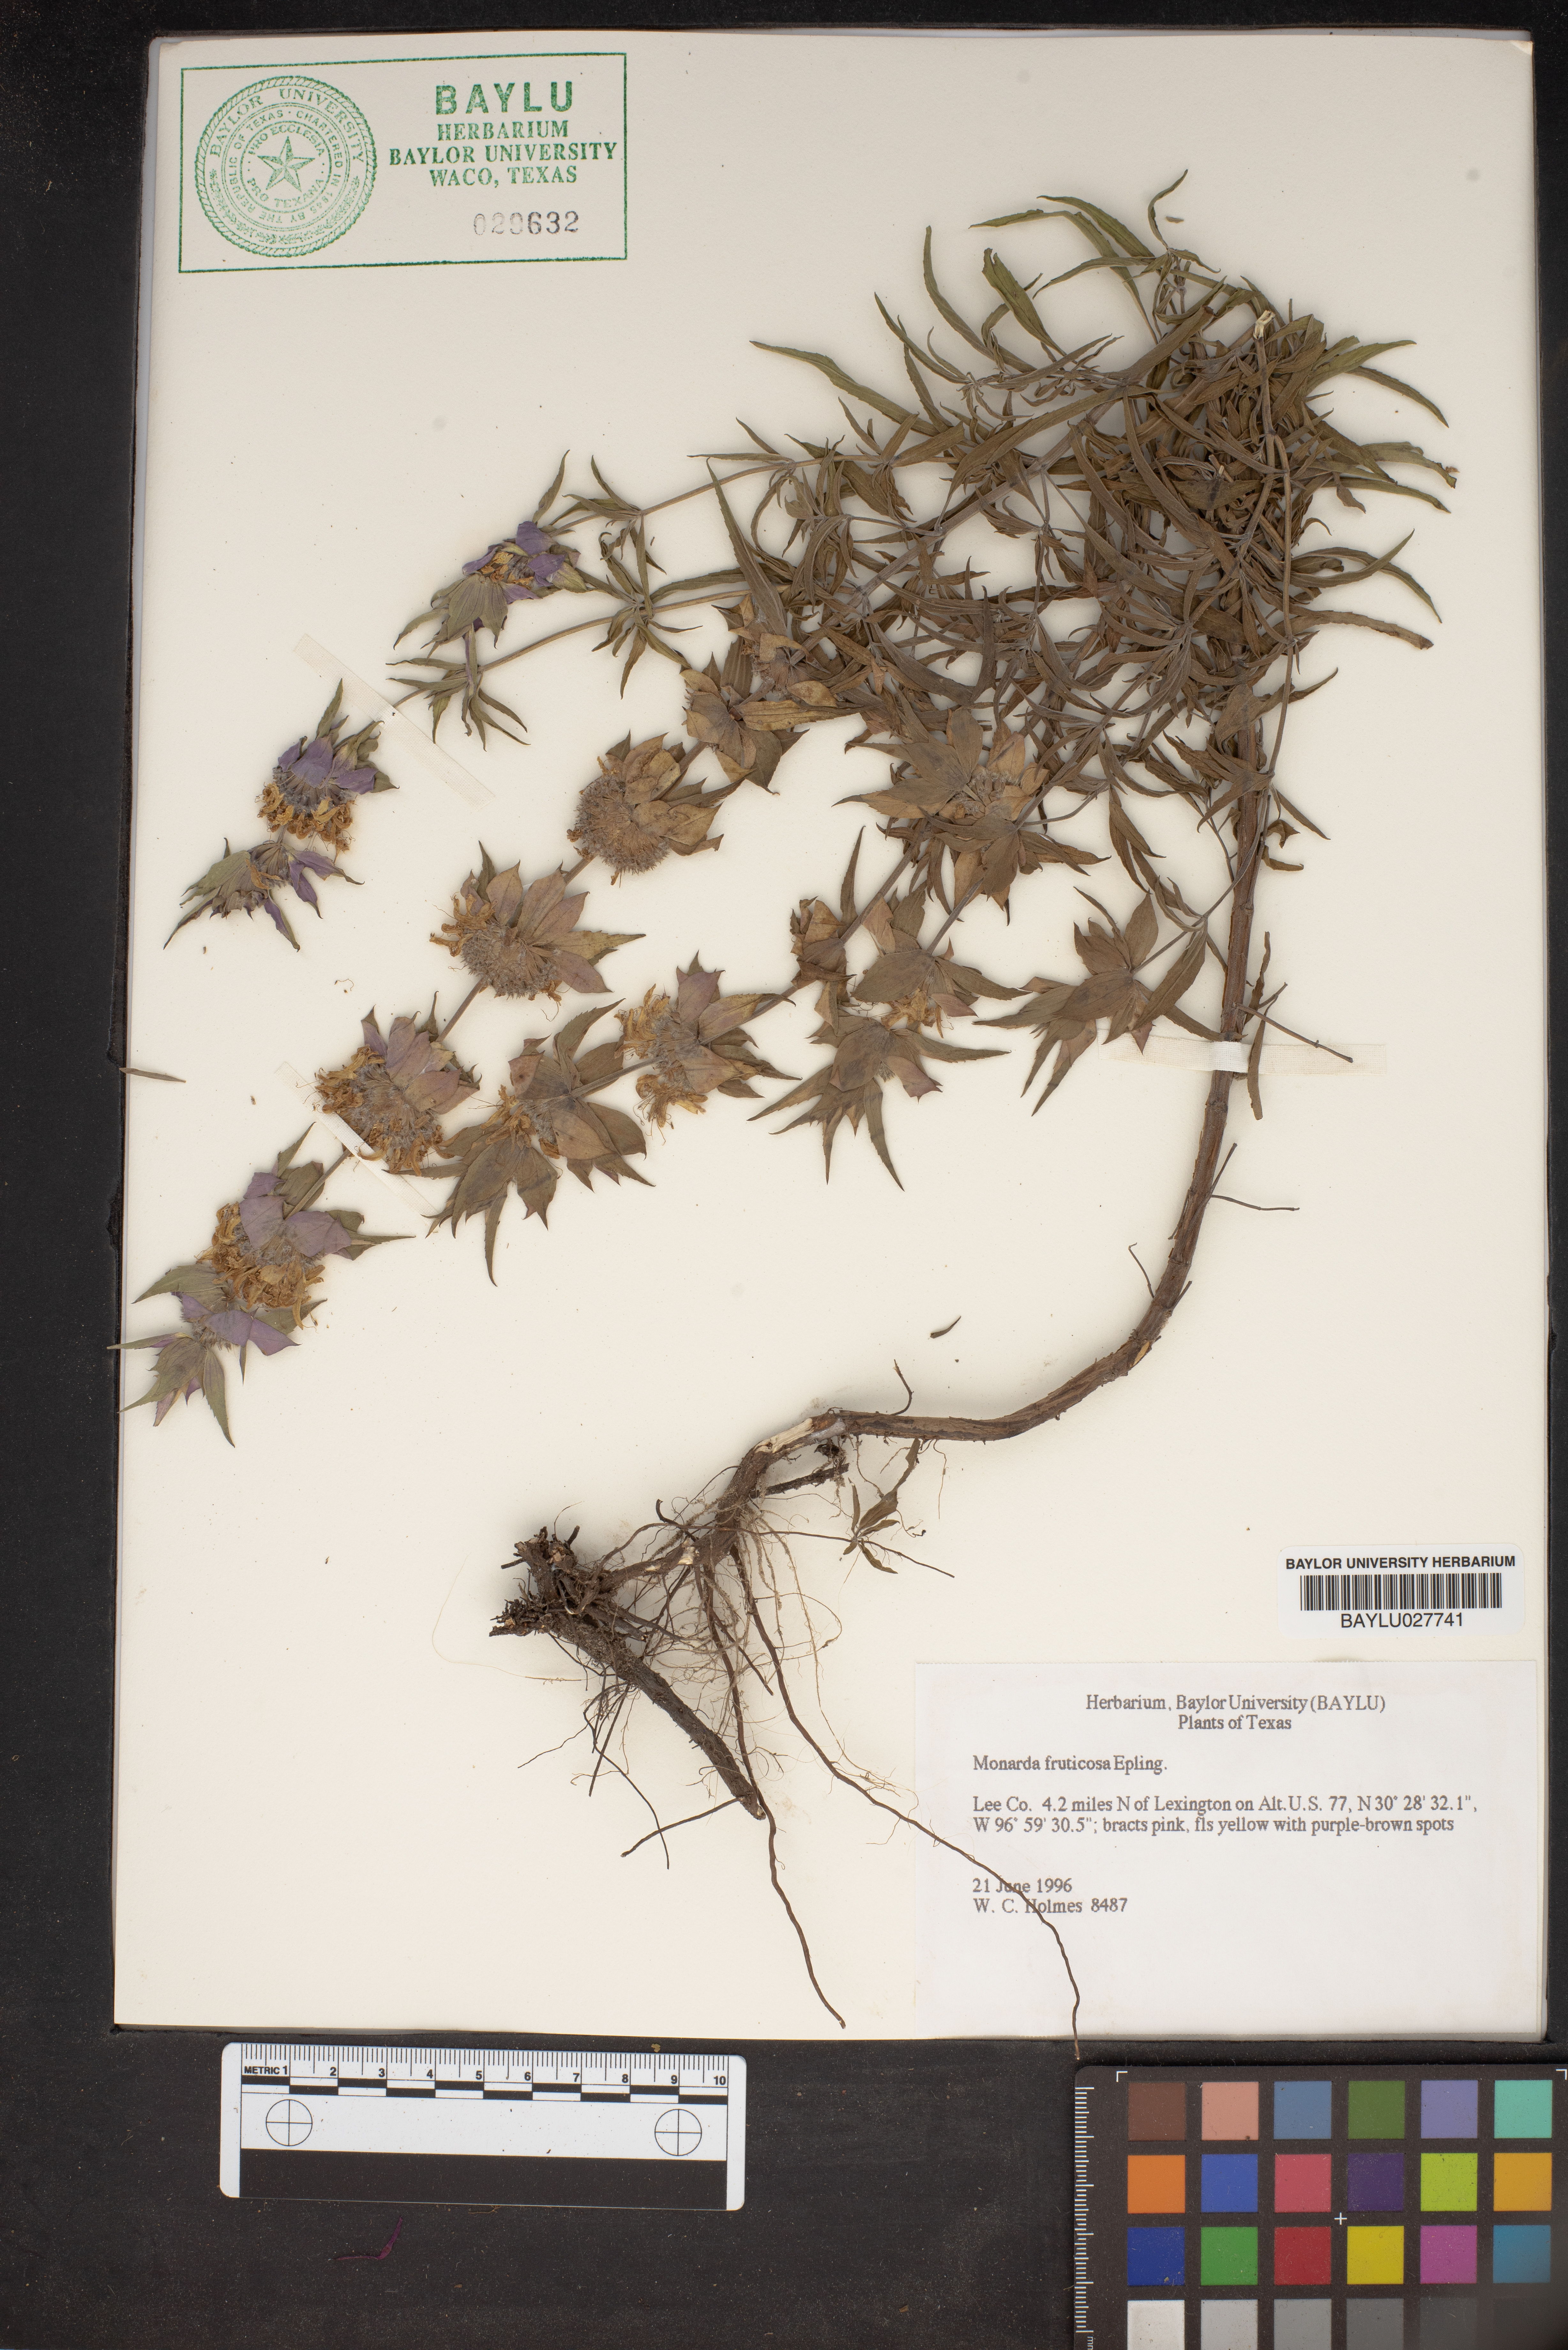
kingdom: Plantae
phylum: Tracheophyta
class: Magnoliopsida
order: Lamiales
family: Lamiaceae
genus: Monarda
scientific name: Monarda fruticulosa
